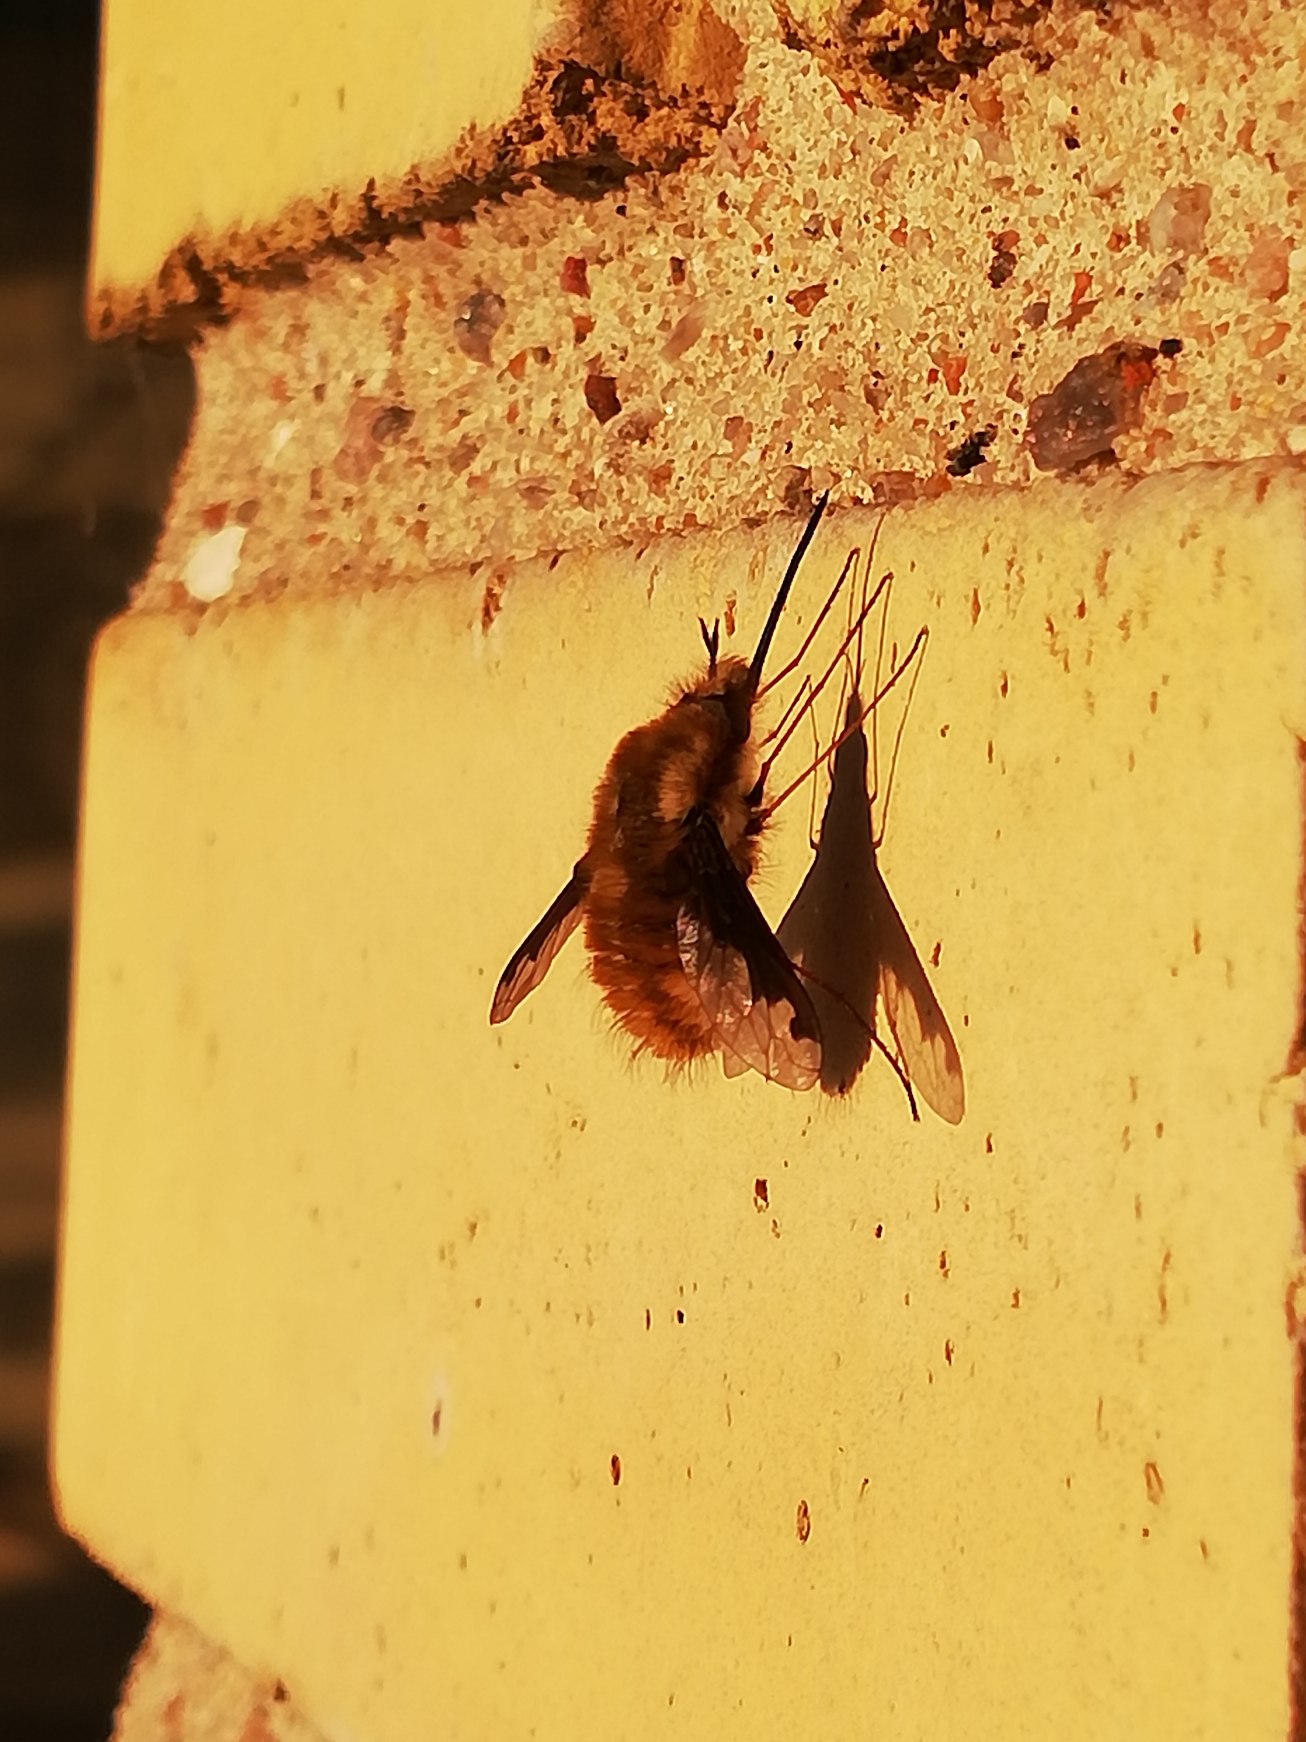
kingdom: Animalia
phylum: Arthropoda
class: Insecta
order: Diptera
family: Bombyliidae
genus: Bombylius
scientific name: Bombylius major
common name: Stor humleflue
